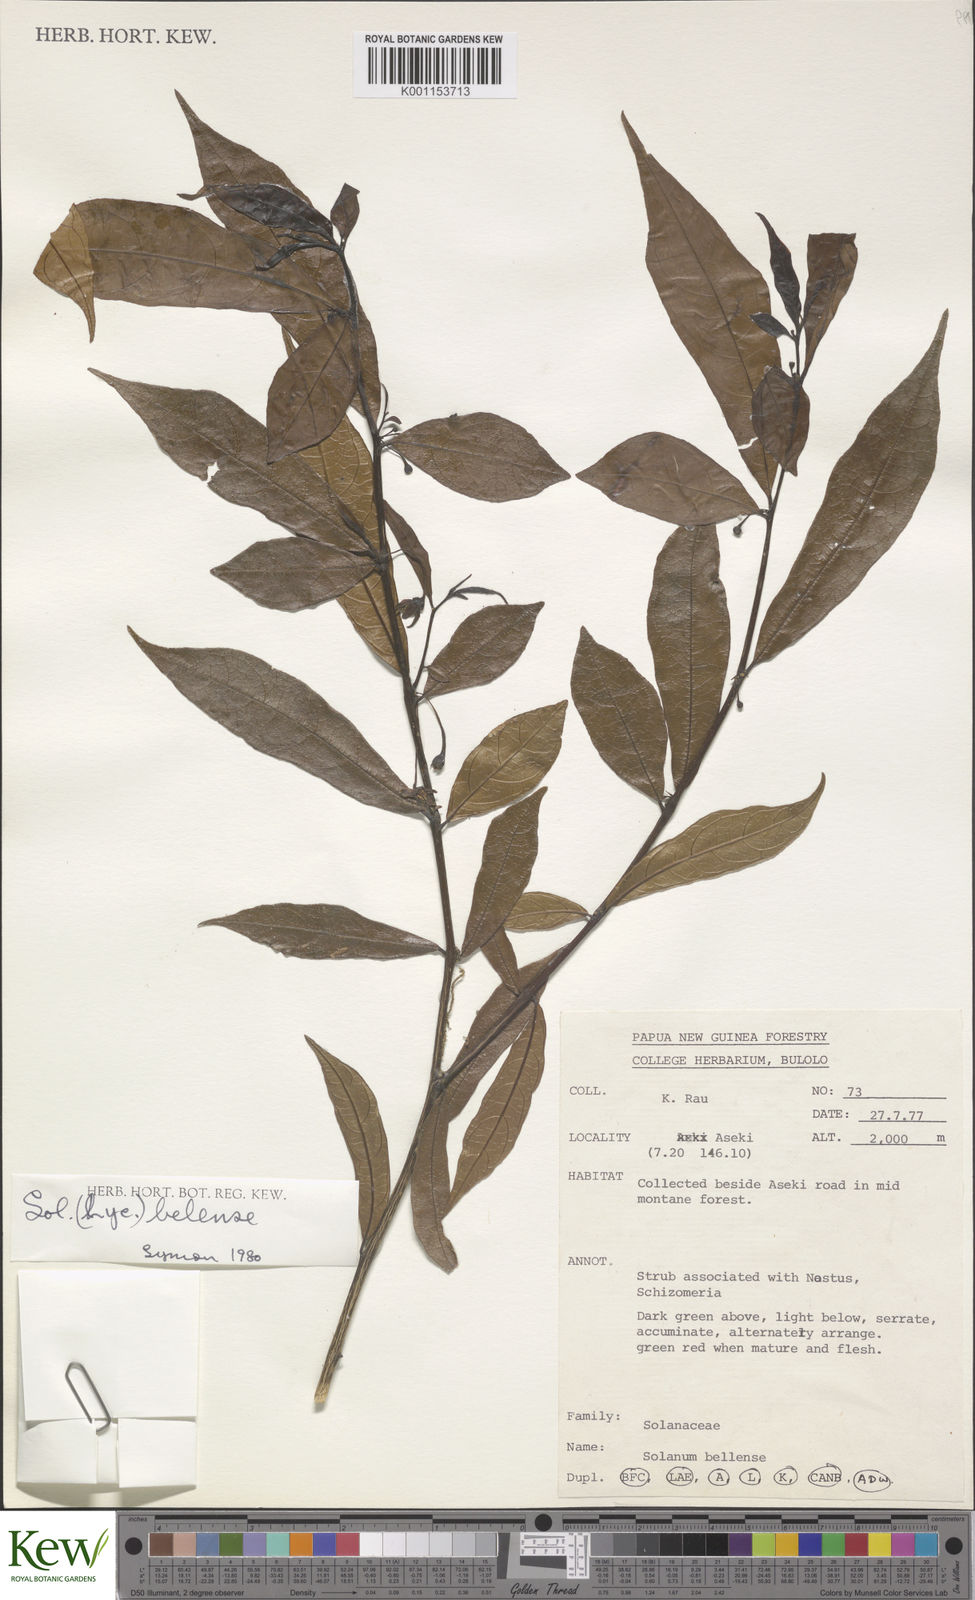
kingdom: Plantae
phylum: Tracheophyta
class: Magnoliopsida
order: Solanales
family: Solanaceae
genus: Lycianthes
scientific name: Lycianthes moszkowskii
